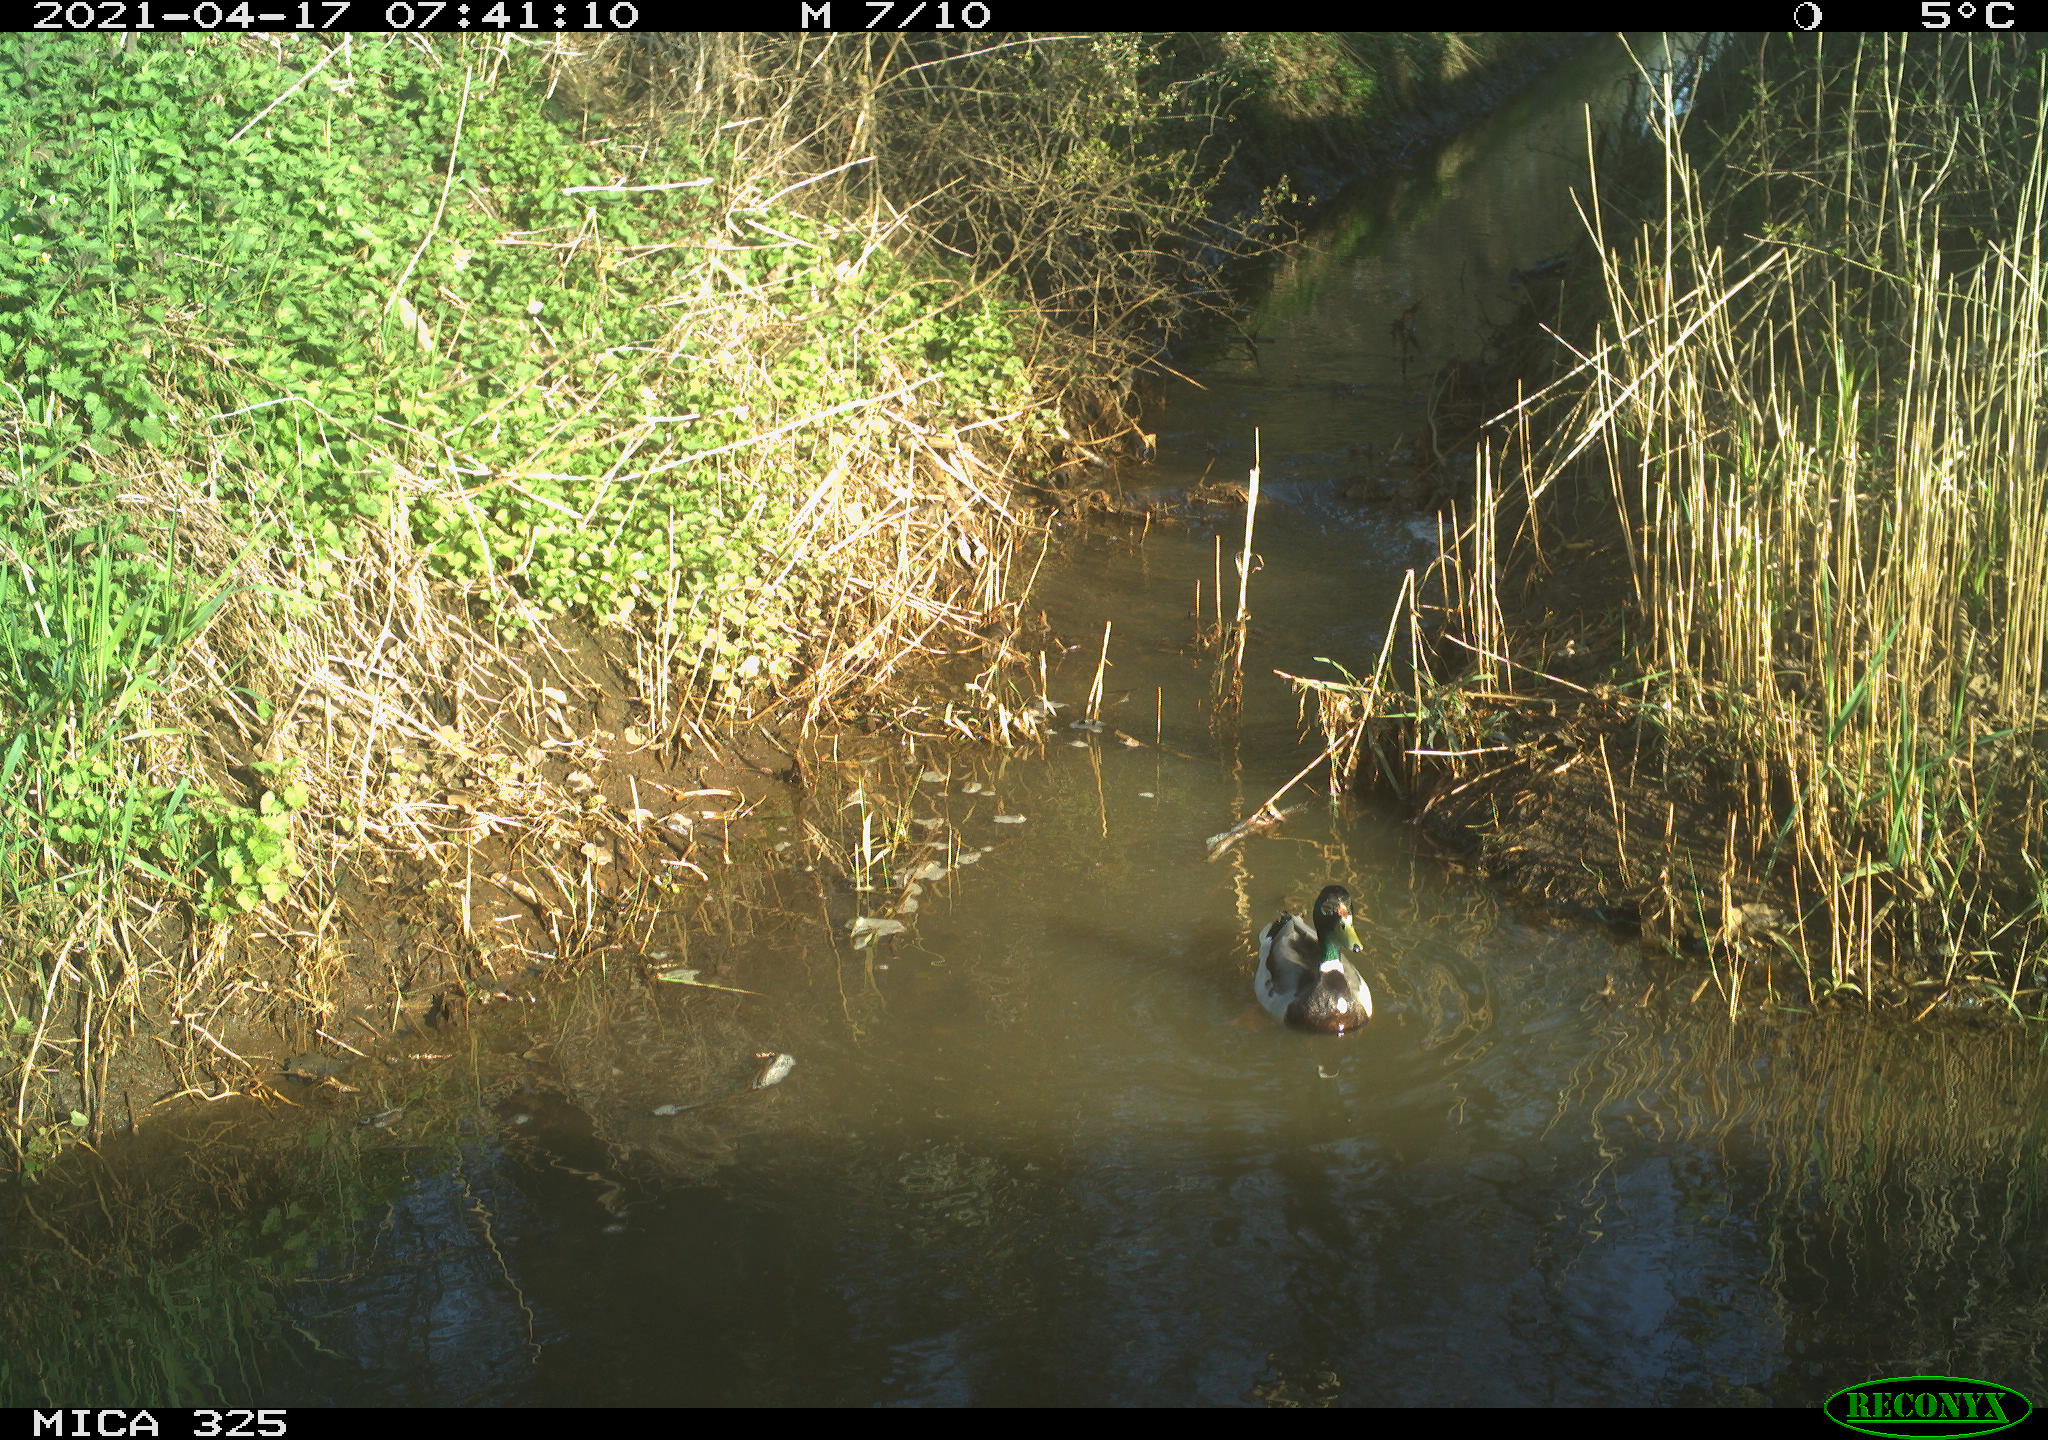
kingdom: Animalia
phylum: Chordata
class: Aves
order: Anseriformes
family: Anatidae
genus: Anas
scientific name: Anas platyrhynchos
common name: Mallard
